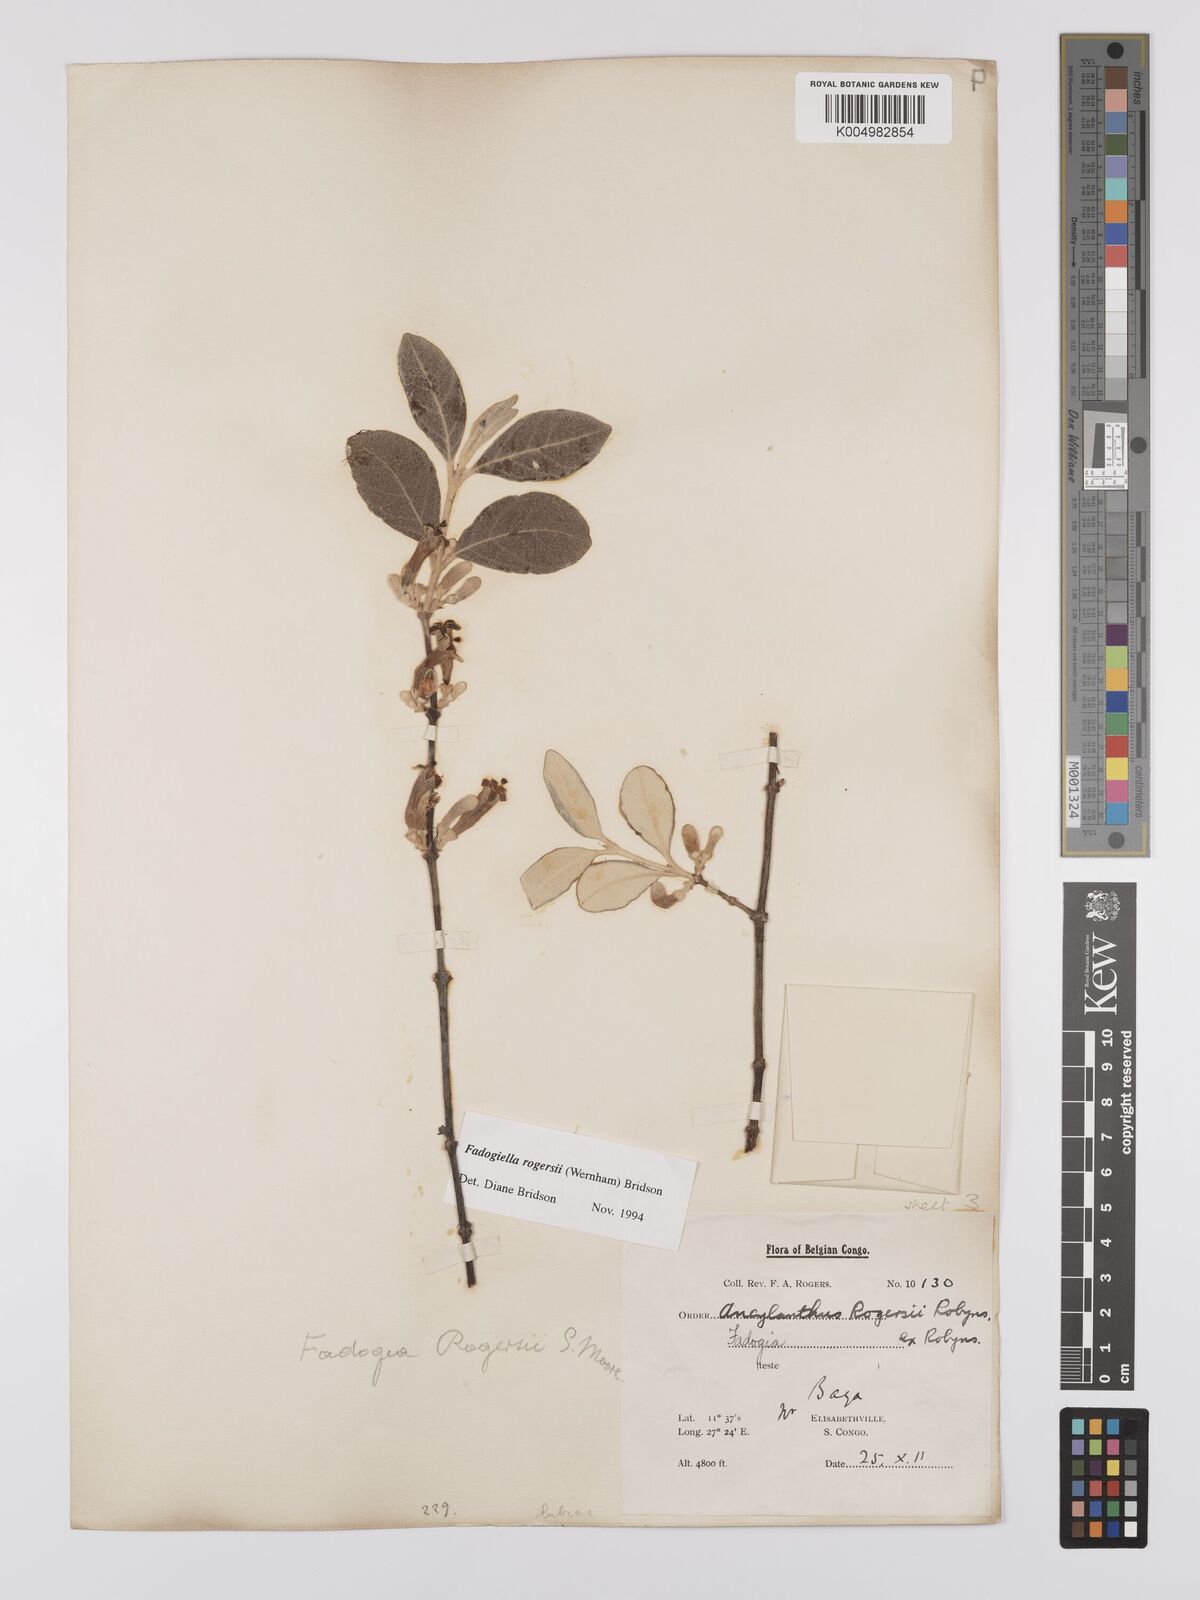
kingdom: Plantae
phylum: Tracheophyta
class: Magnoliopsida
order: Gentianales
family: Rubiaceae
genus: Fadogiella
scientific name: Fadogiella rogersii
